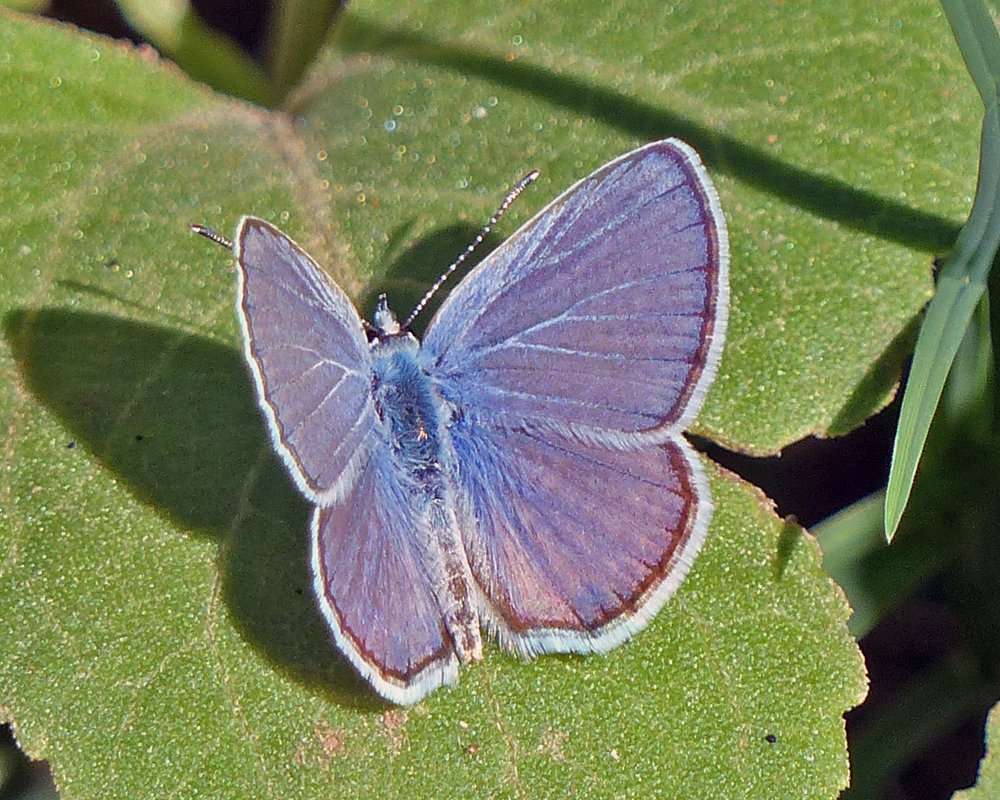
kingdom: Animalia
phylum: Arthropoda
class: Insecta
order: Lepidoptera
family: Lycaenidae
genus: Hemiargus
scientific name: Hemiargus ceraunus
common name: Ceraunus Blue
